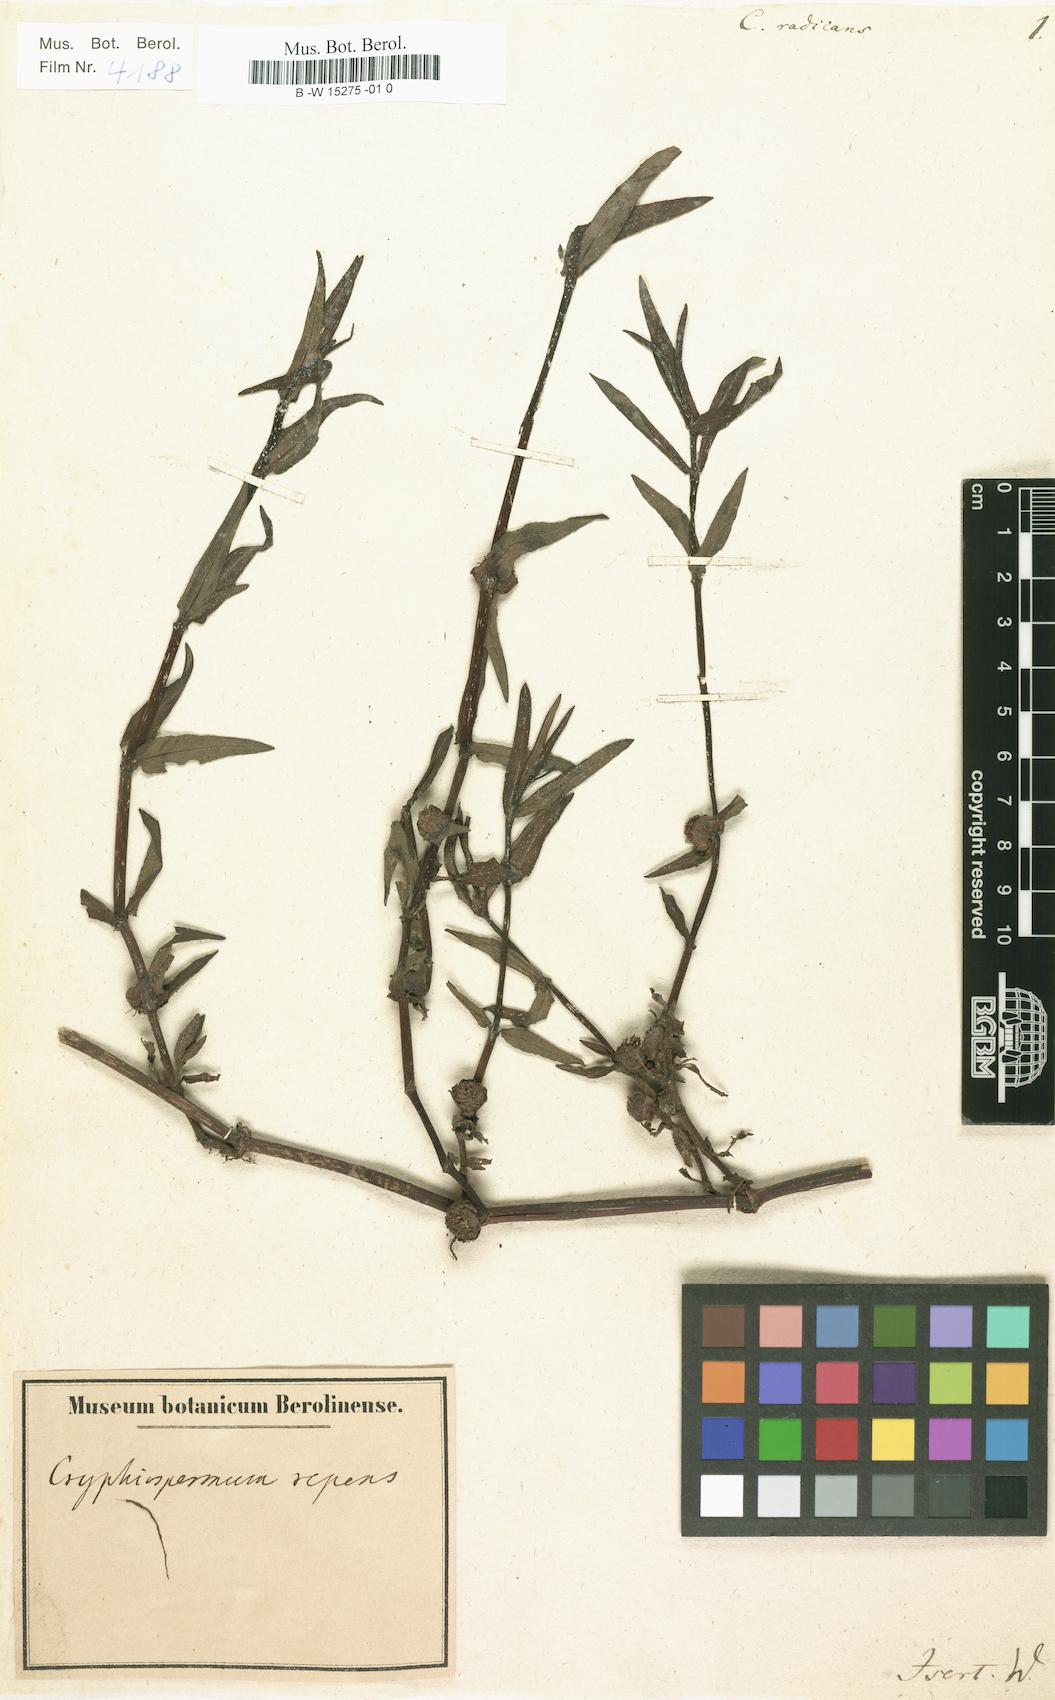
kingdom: Plantae
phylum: Tracheophyta
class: Magnoliopsida
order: Asterales
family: Asteraceae
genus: Enydra
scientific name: Enydra radicans
